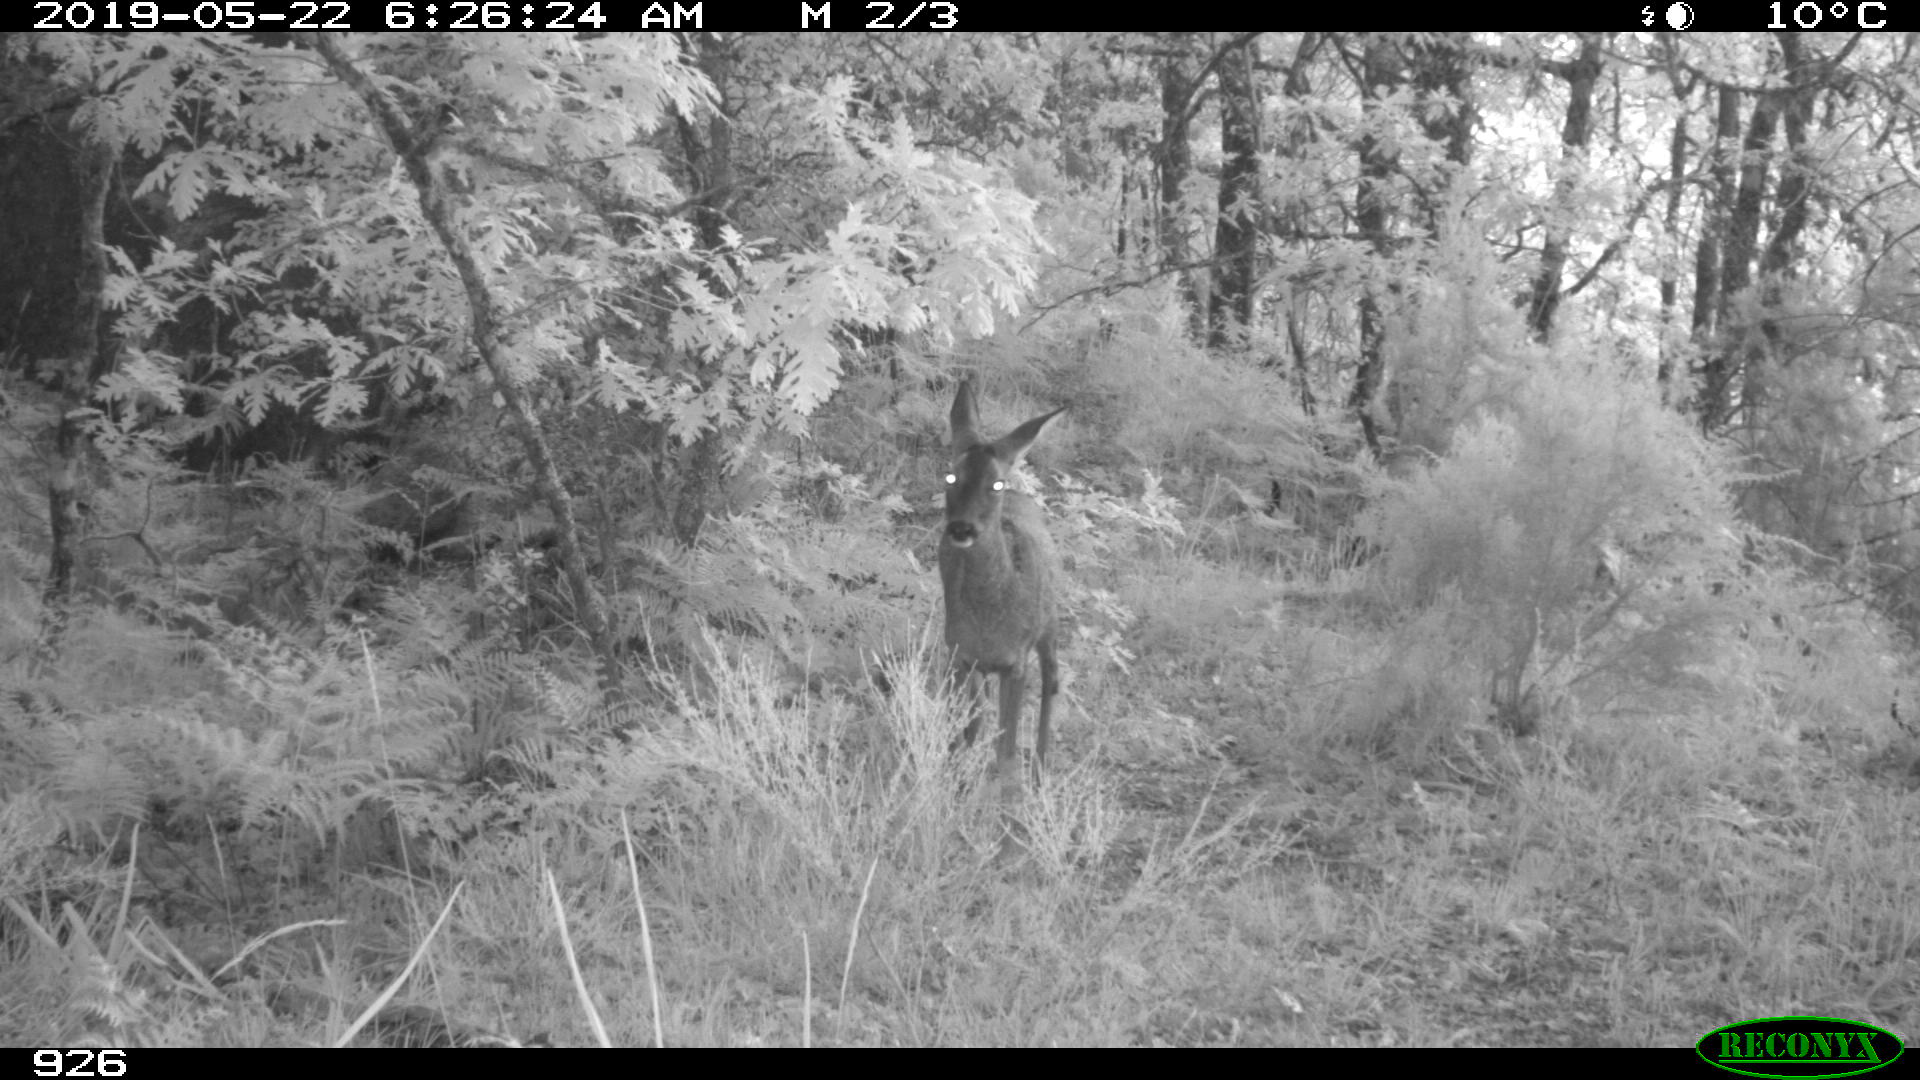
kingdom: Animalia
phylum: Chordata
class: Mammalia
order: Artiodactyla
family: Cervidae
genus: Capreolus
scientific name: Capreolus capreolus
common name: Western roe deer
